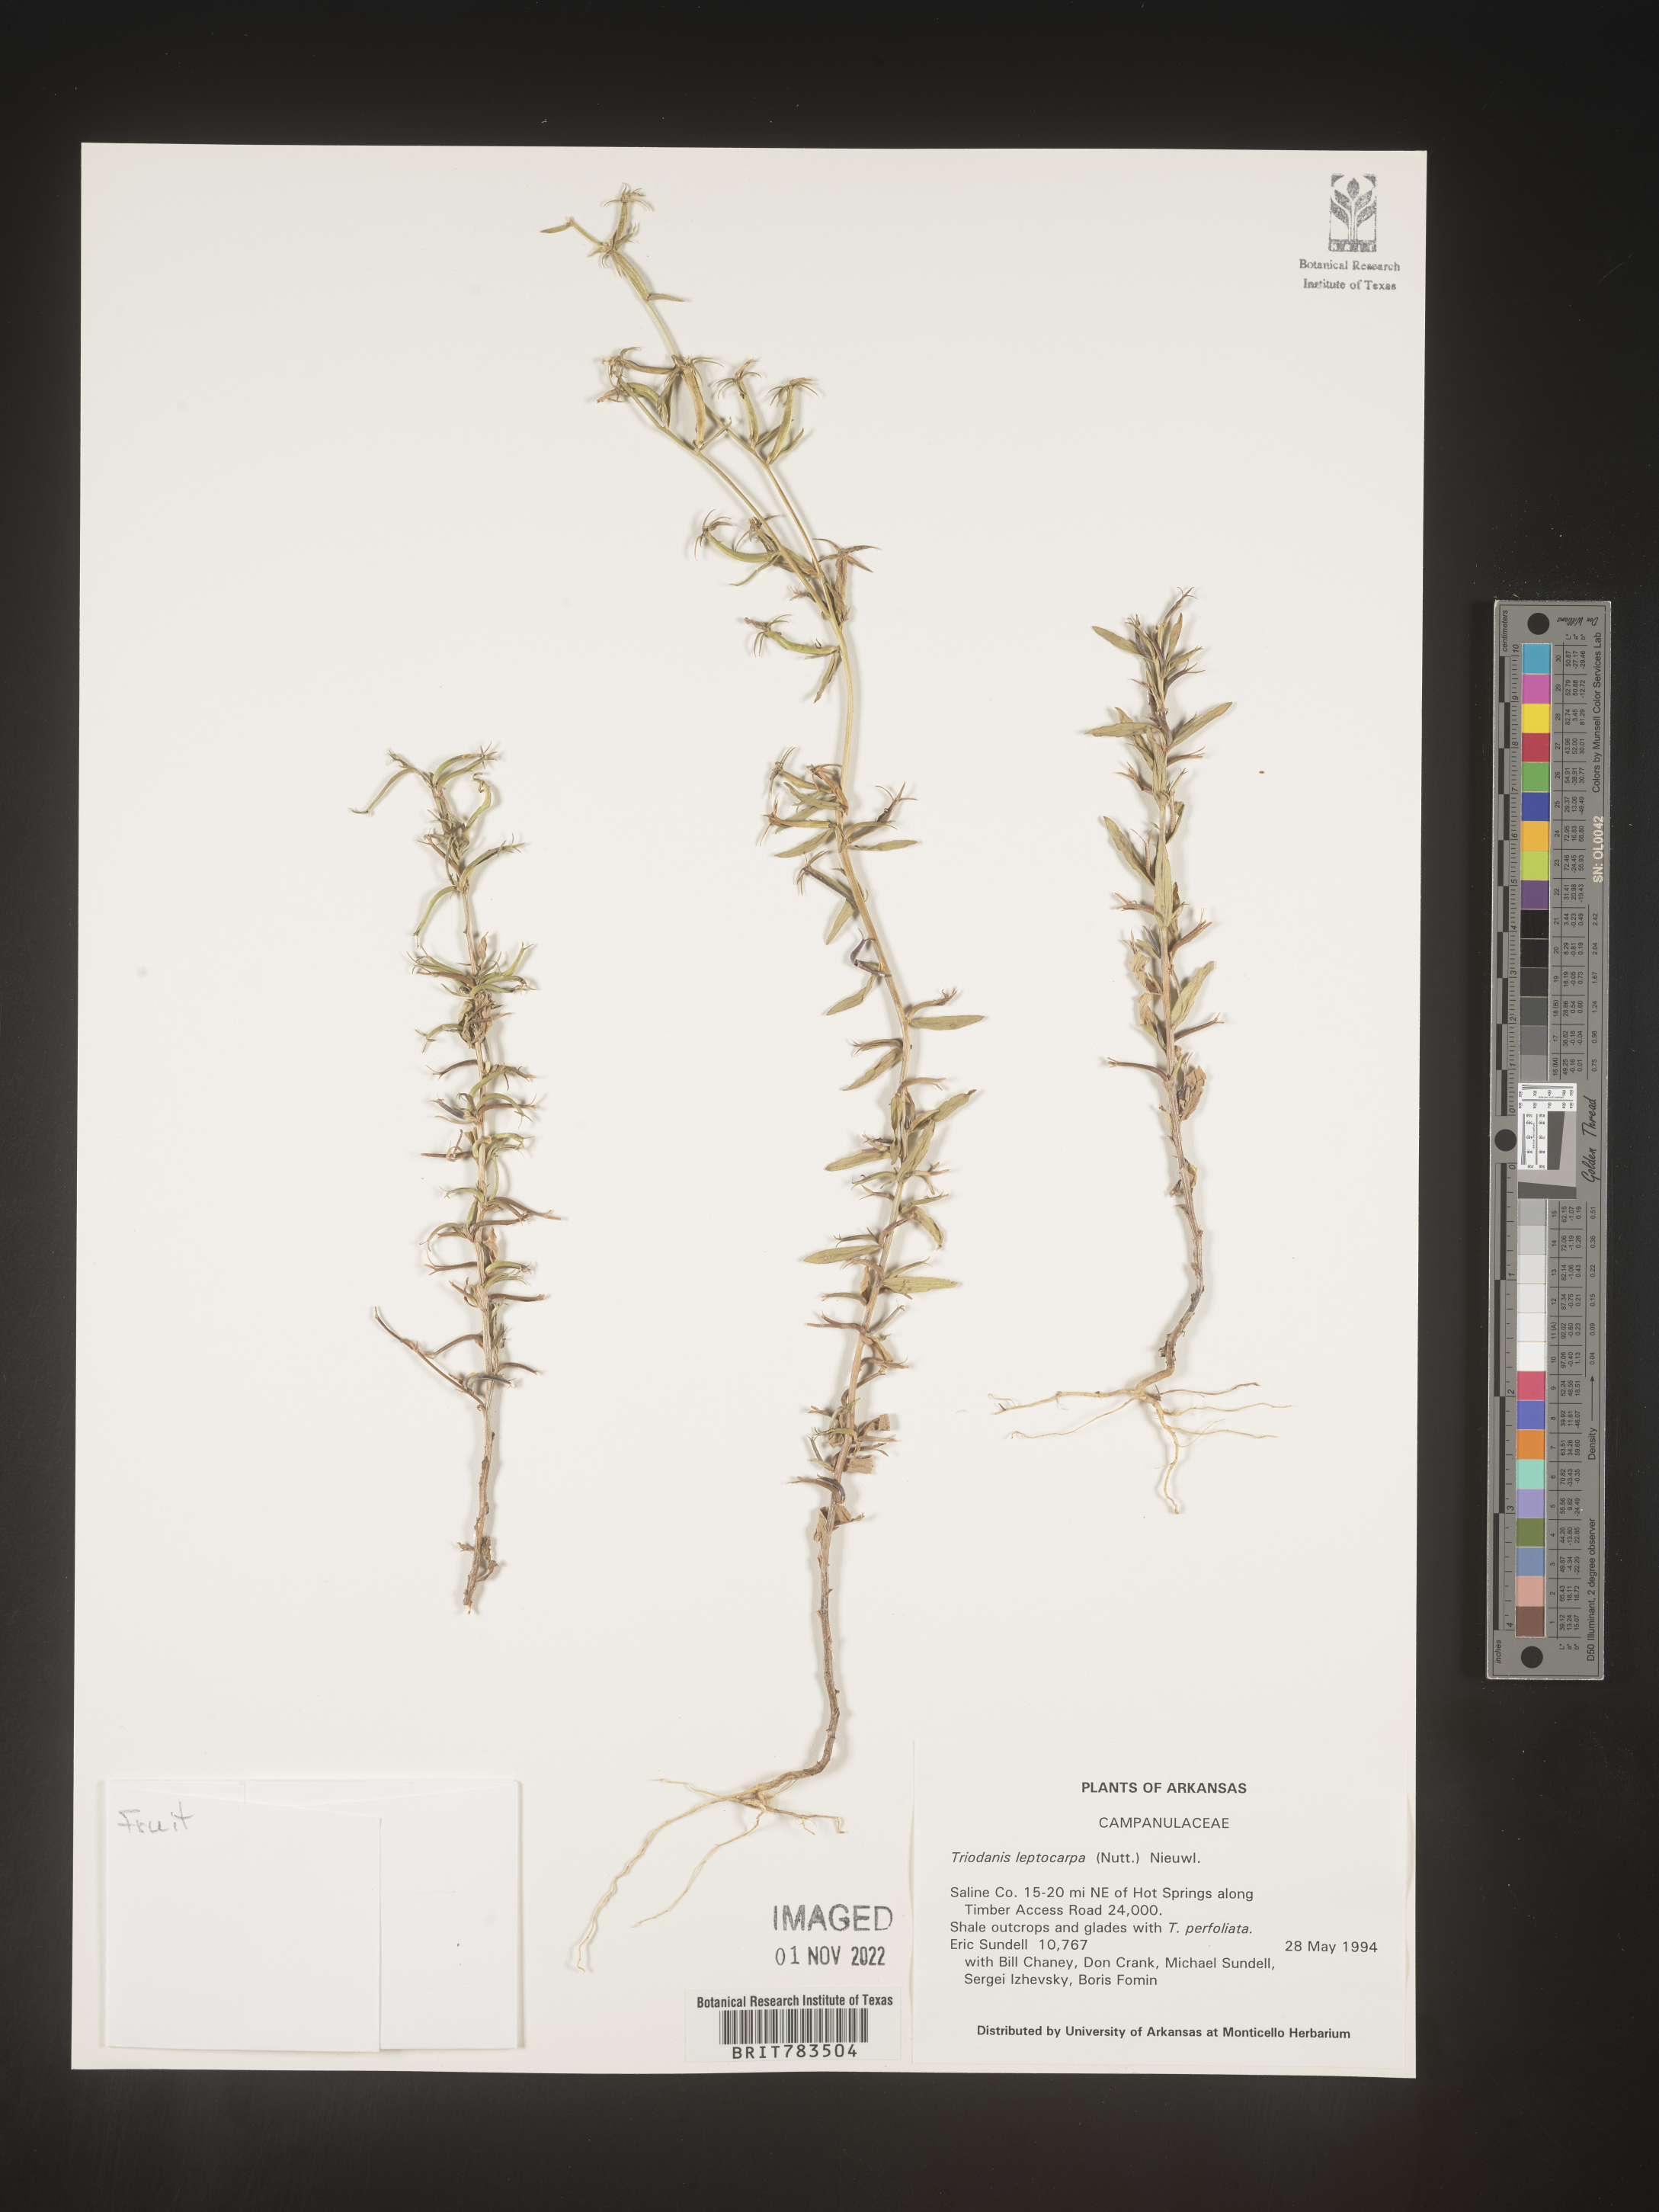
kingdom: Plantae
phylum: Tracheophyta
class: Magnoliopsida
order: Asterales
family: Campanulaceae
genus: Triodanis
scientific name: Triodanis leptocarpa
